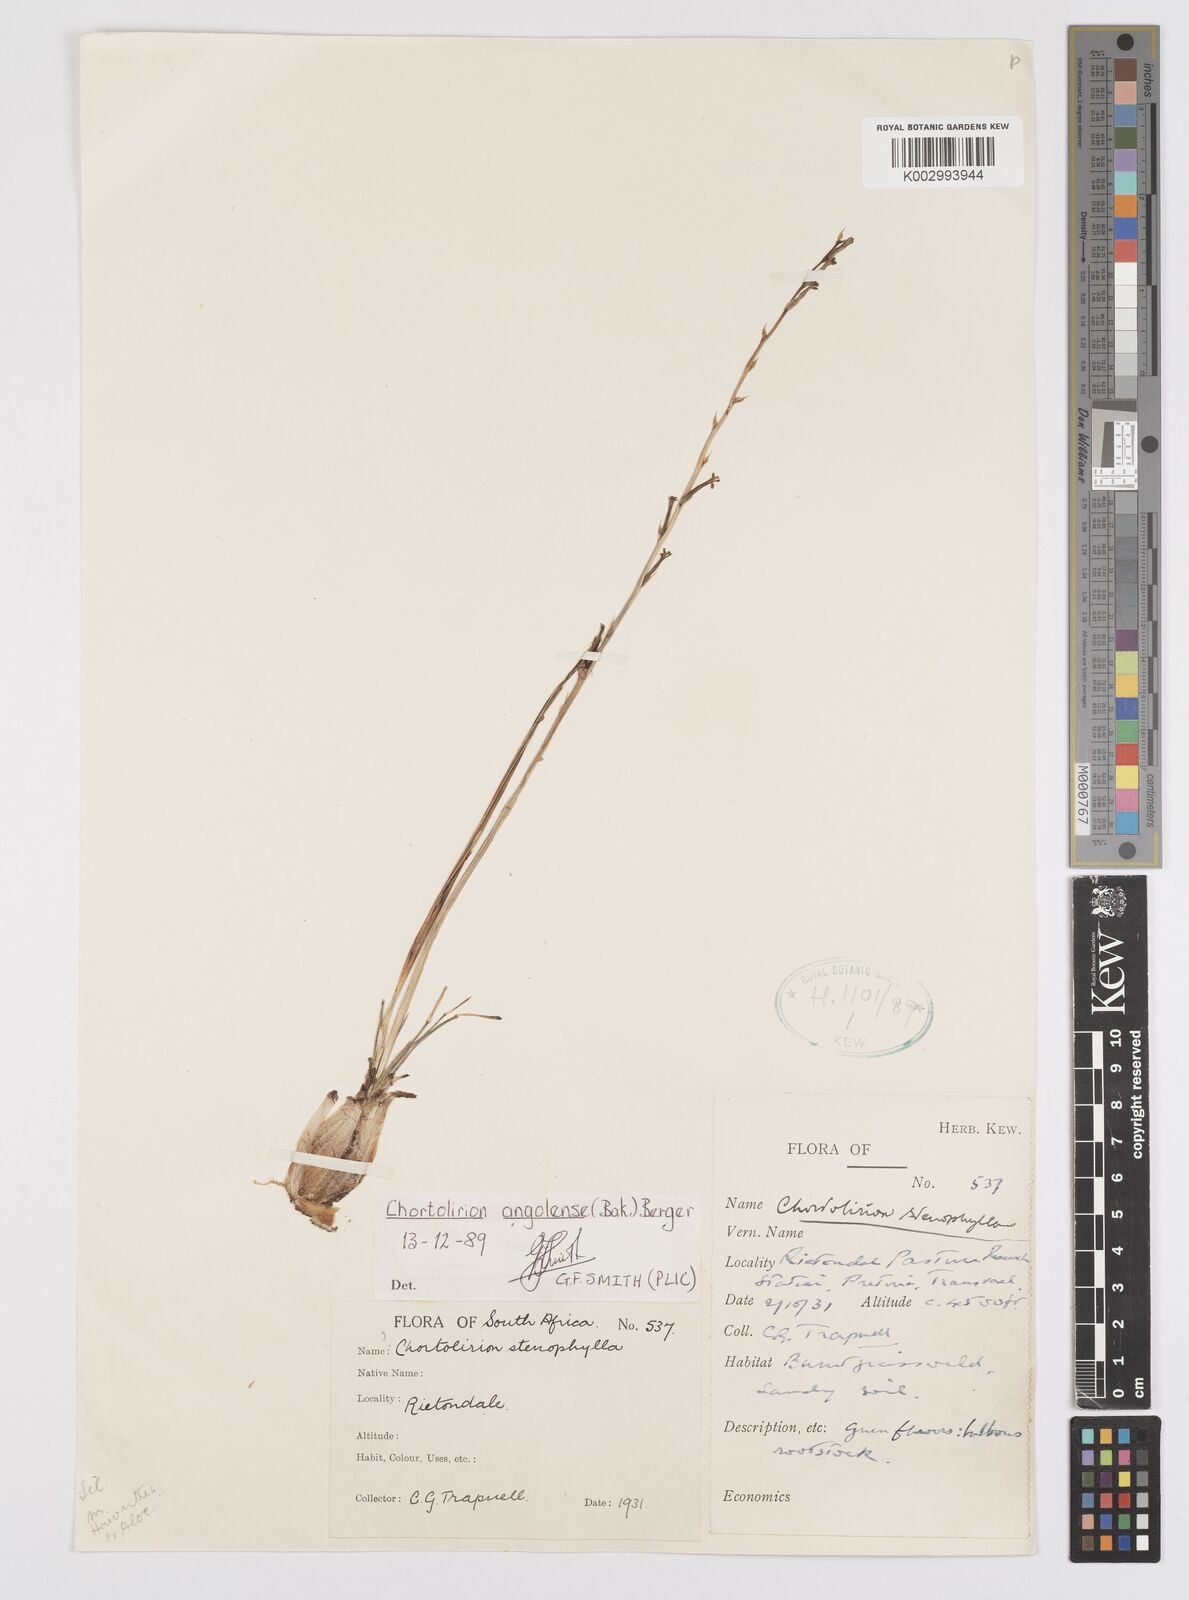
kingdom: Plantae
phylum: Tracheophyta
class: Liliopsida
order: Asparagales
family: Asphodelaceae
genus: Aloe
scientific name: Aloe welwitschii
